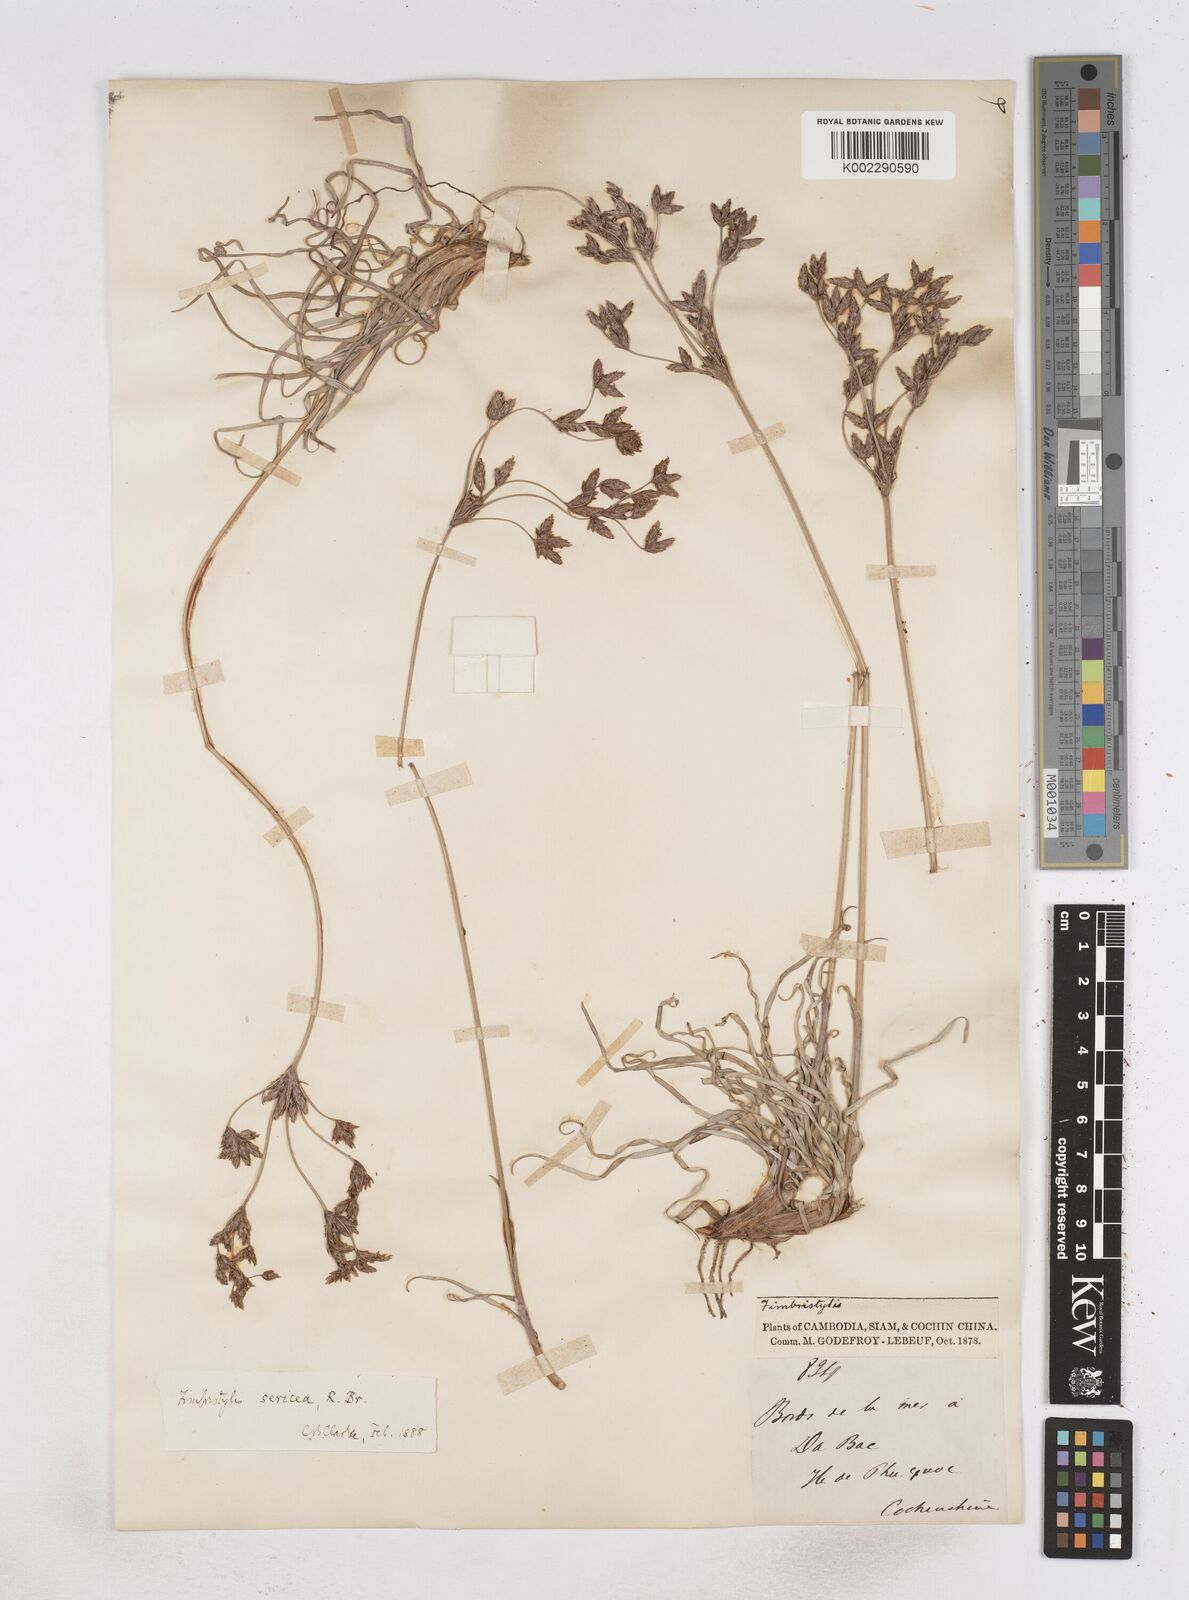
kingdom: Plantae
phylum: Tracheophyta
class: Liliopsida
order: Poales
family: Cyperaceae
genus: Fimbristylis
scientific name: Fimbristylis sericea
